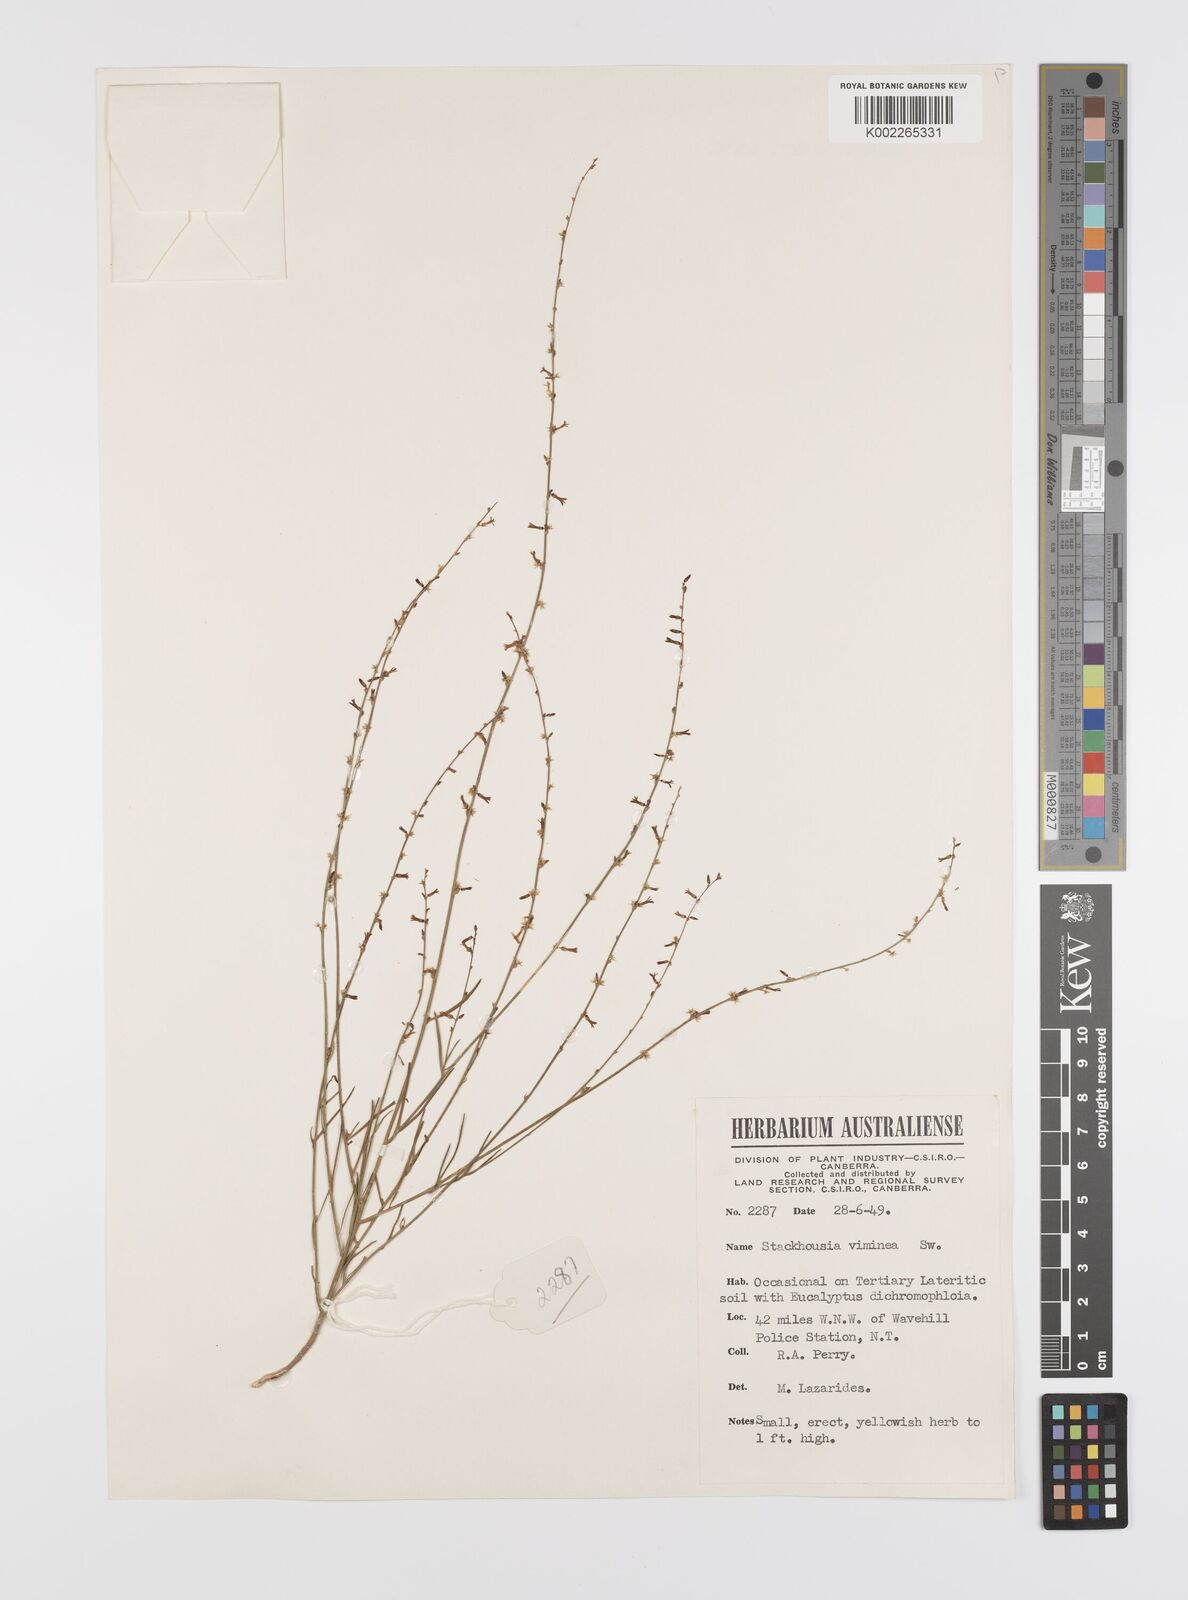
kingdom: Plantae
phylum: Tracheophyta
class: Magnoliopsida
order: Celastrales
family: Celastraceae
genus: Stackhousia
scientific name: Stackhousia viminea
